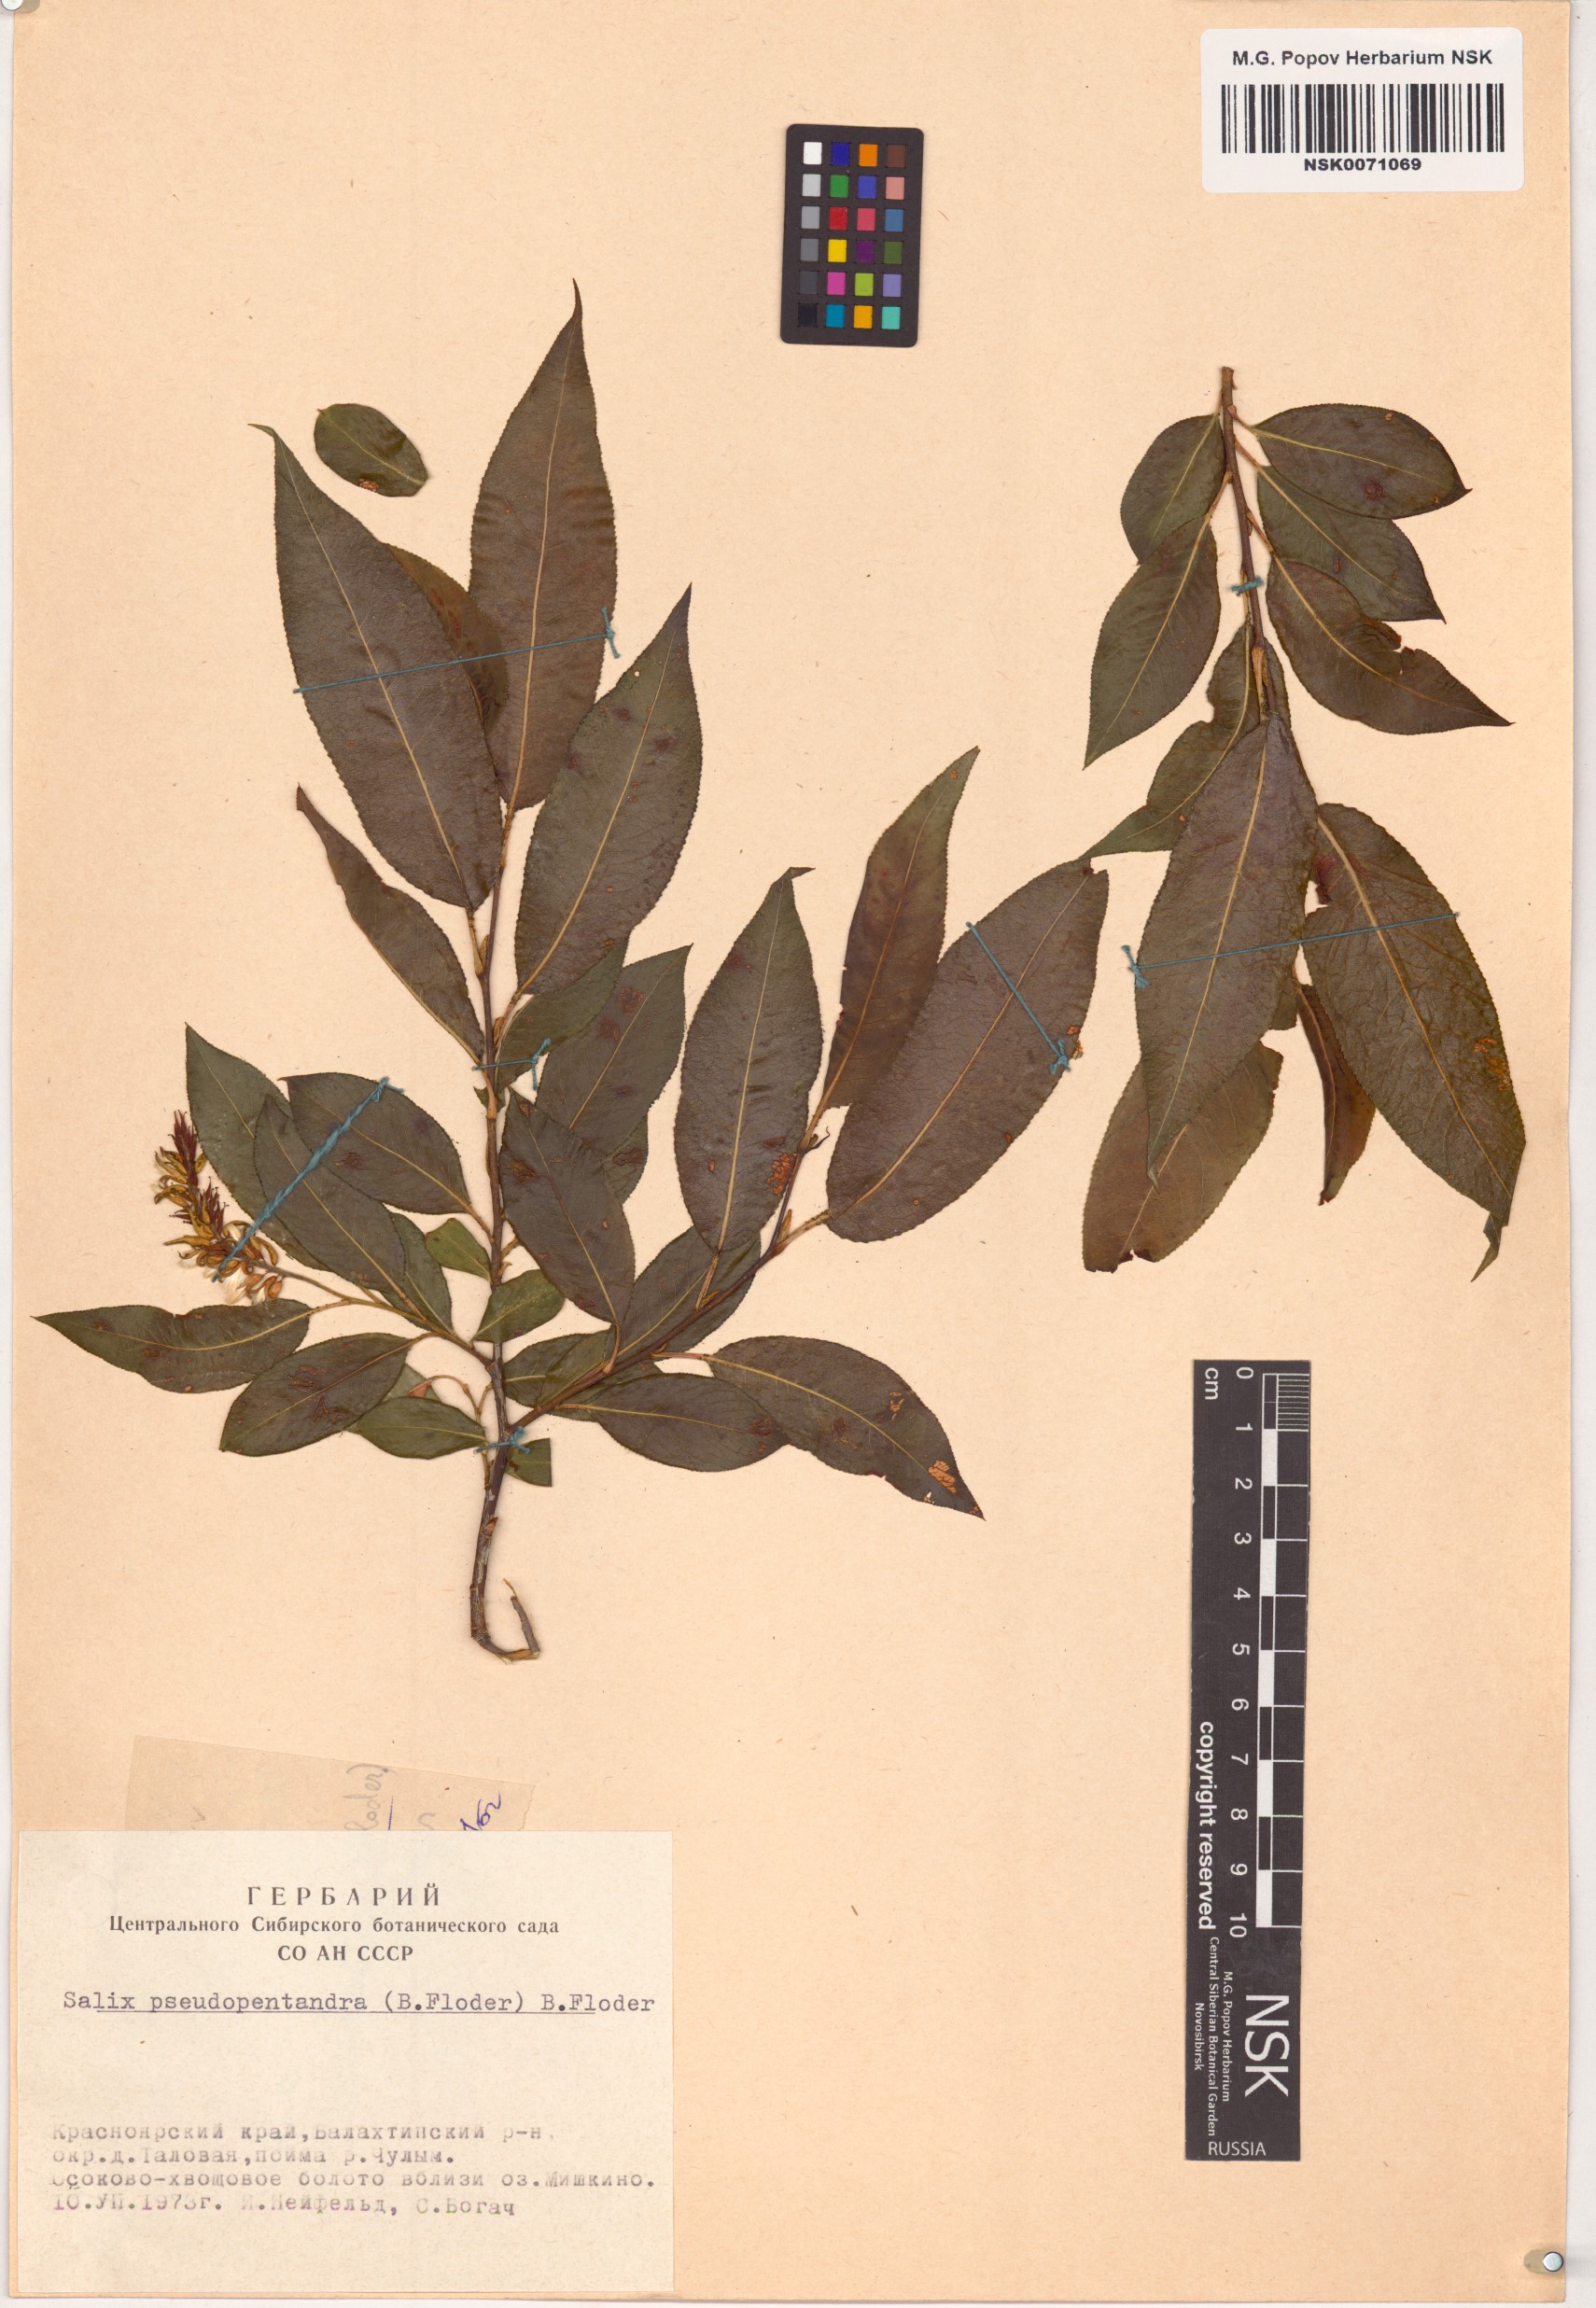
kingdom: Plantae
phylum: Tracheophyta
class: Magnoliopsida
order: Malpighiales
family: Salicaceae
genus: Salix
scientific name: Salix pseudopentandra
